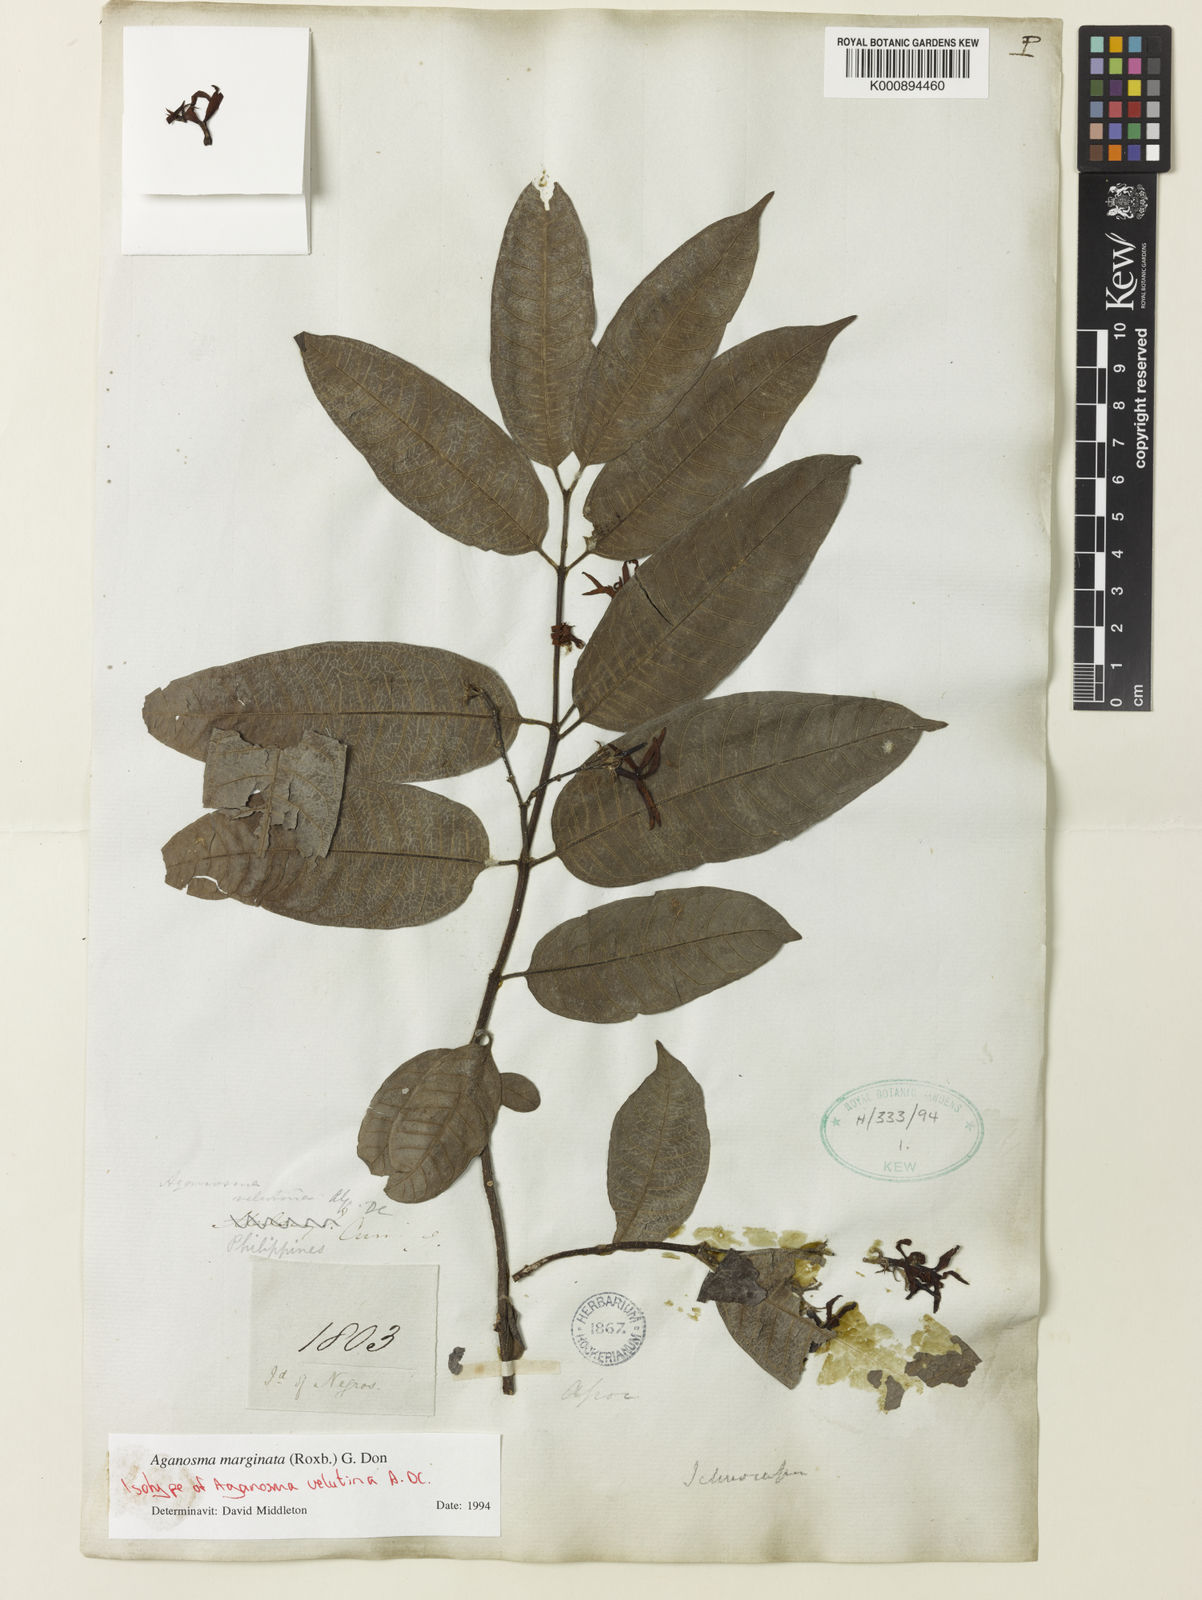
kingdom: Plantae
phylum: Tracheophyta
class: Magnoliopsida
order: Gentianales
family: Apocynaceae
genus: Amphineurion
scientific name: Amphineurion marginatum
